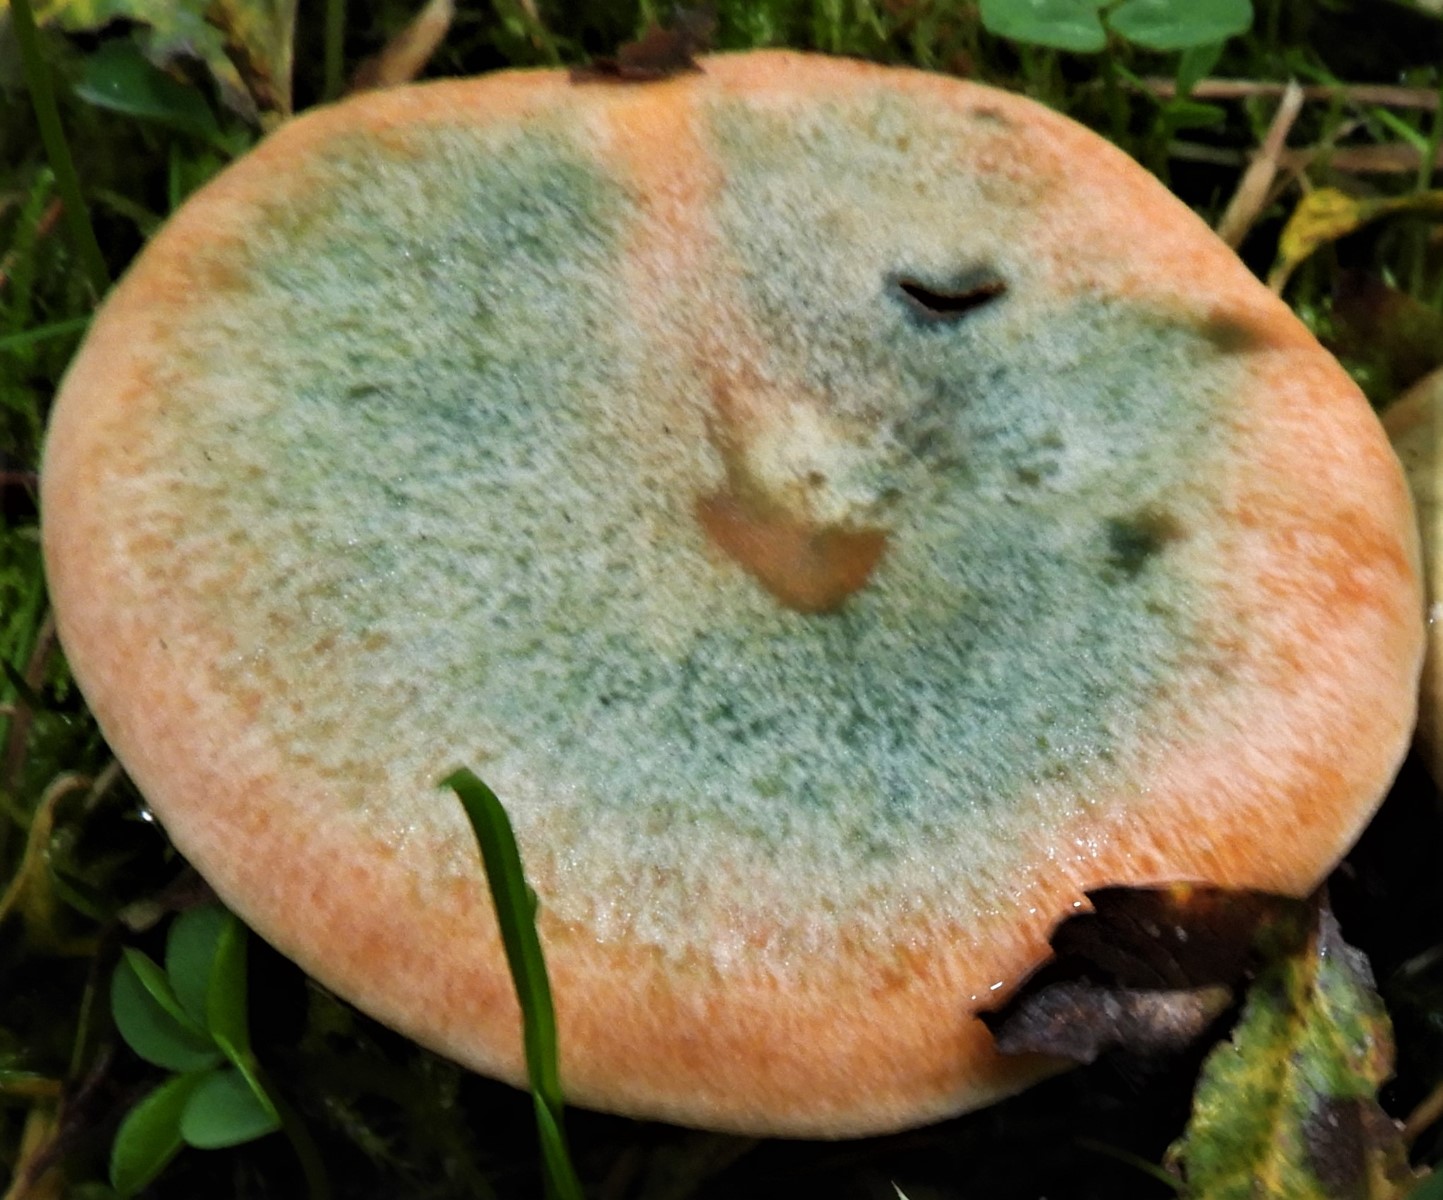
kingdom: Fungi
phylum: Basidiomycota
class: Agaricomycetes
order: Russulales
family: Russulaceae
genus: Lactarius
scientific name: Lactarius deterrimus
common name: gran-mælkehat
